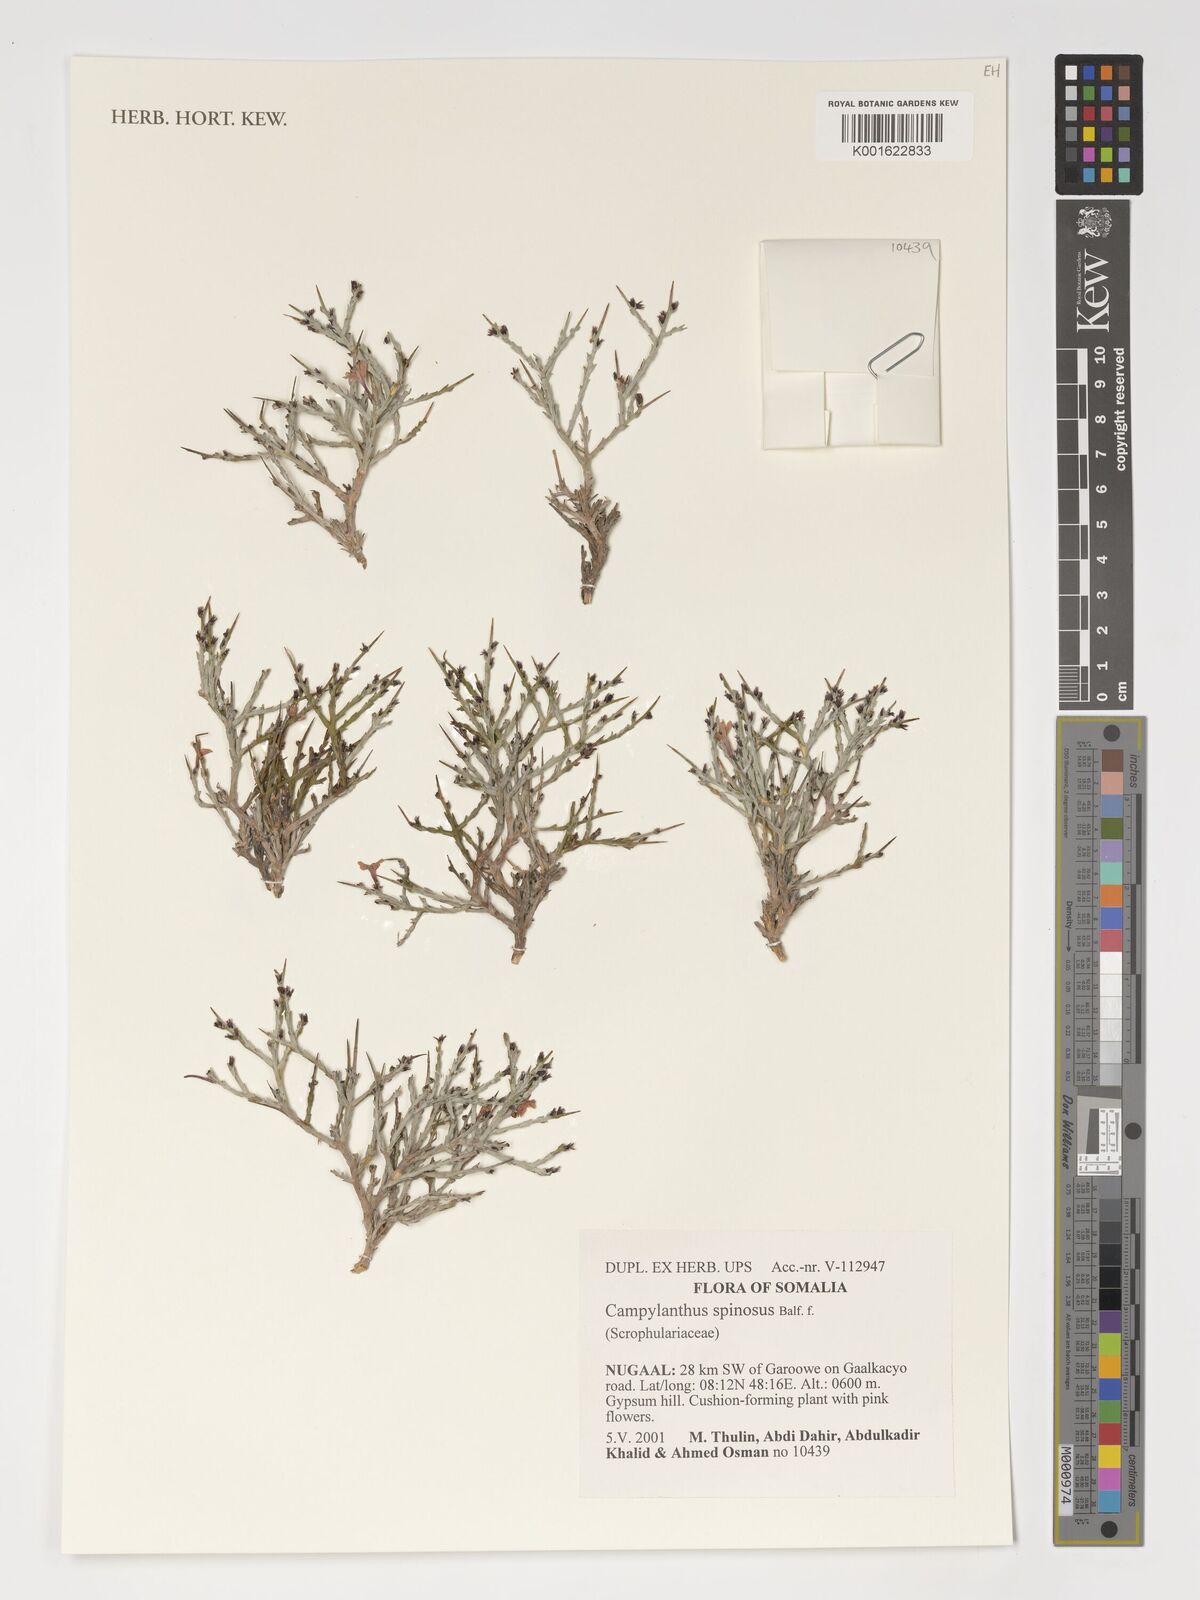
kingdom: Plantae
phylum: Tracheophyta
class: Magnoliopsida
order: Lamiales
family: Plantaginaceae
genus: Campylanthus
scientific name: Campylanthus spinosus
